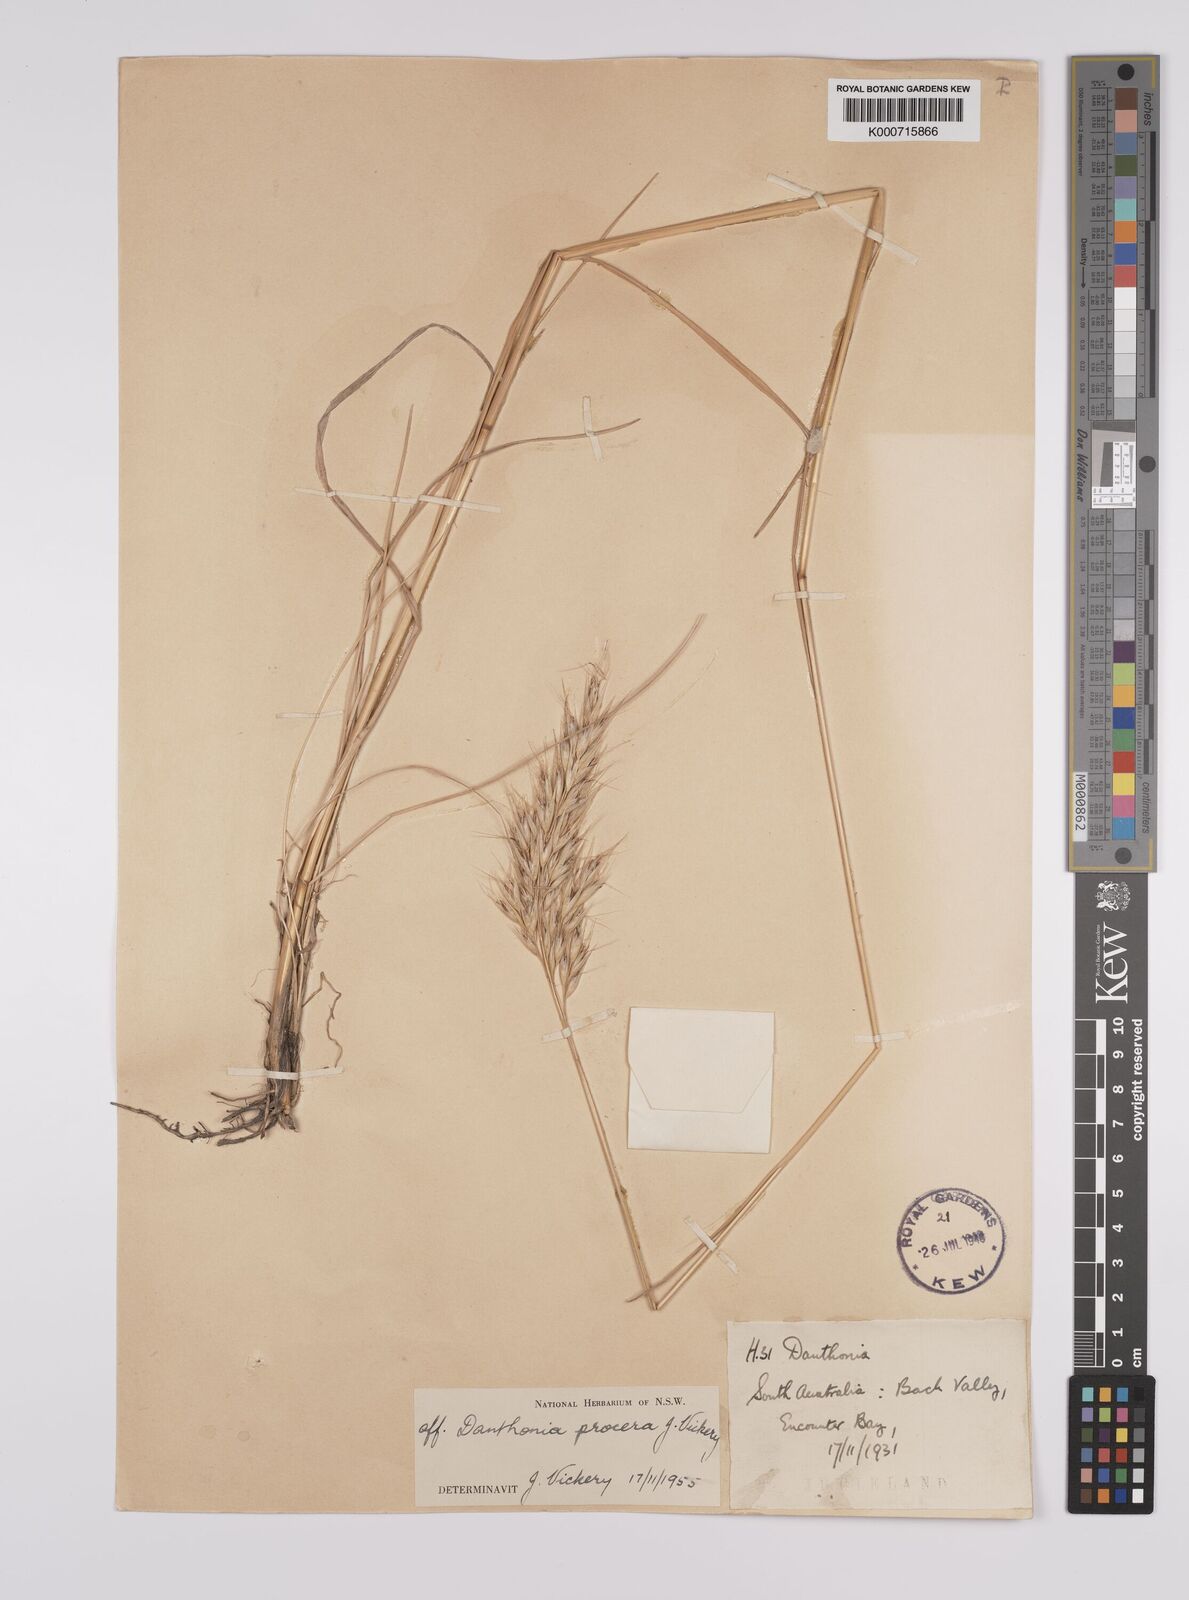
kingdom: Plantae
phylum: Tracheophyta
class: Liliopsida
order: Poales
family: Poaceae
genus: Rytidosperma
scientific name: Rytidosperma indutum
